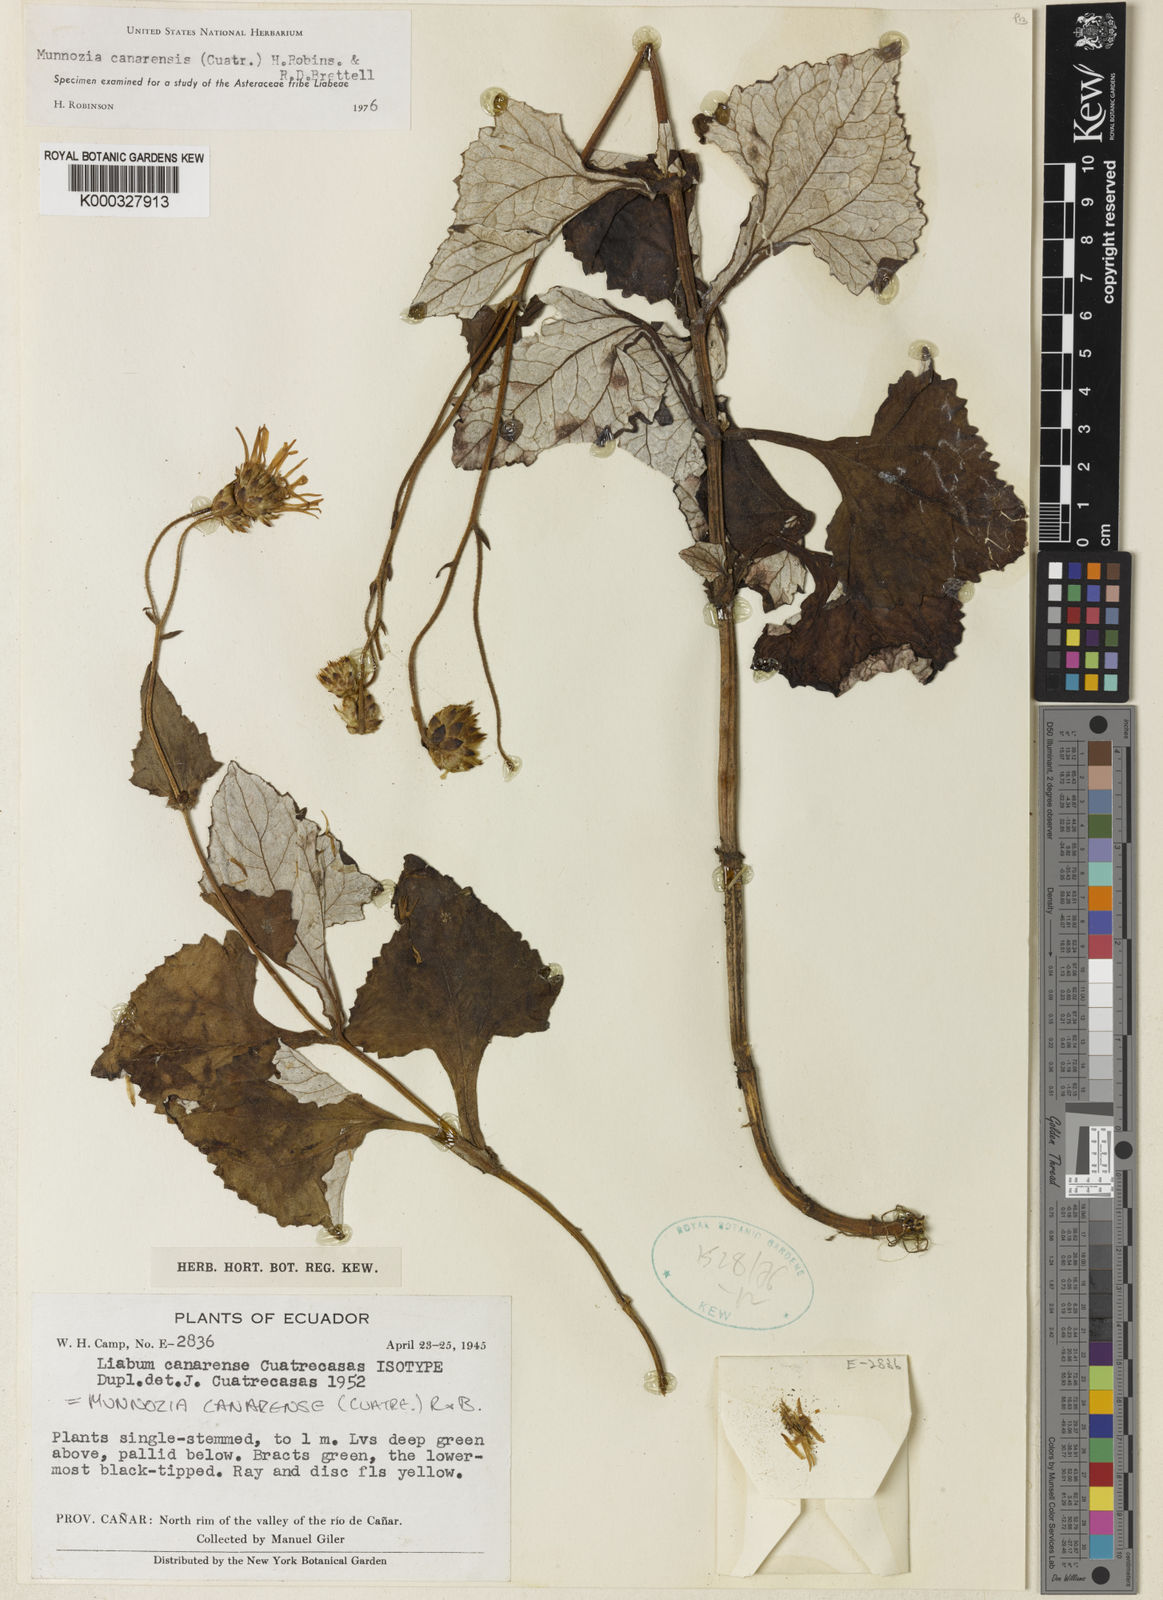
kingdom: Plantae
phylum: Tracheophyta
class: Magnoliopsida
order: Asterales
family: Asteraceae
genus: Munnozia
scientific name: Munnozia canarensis
